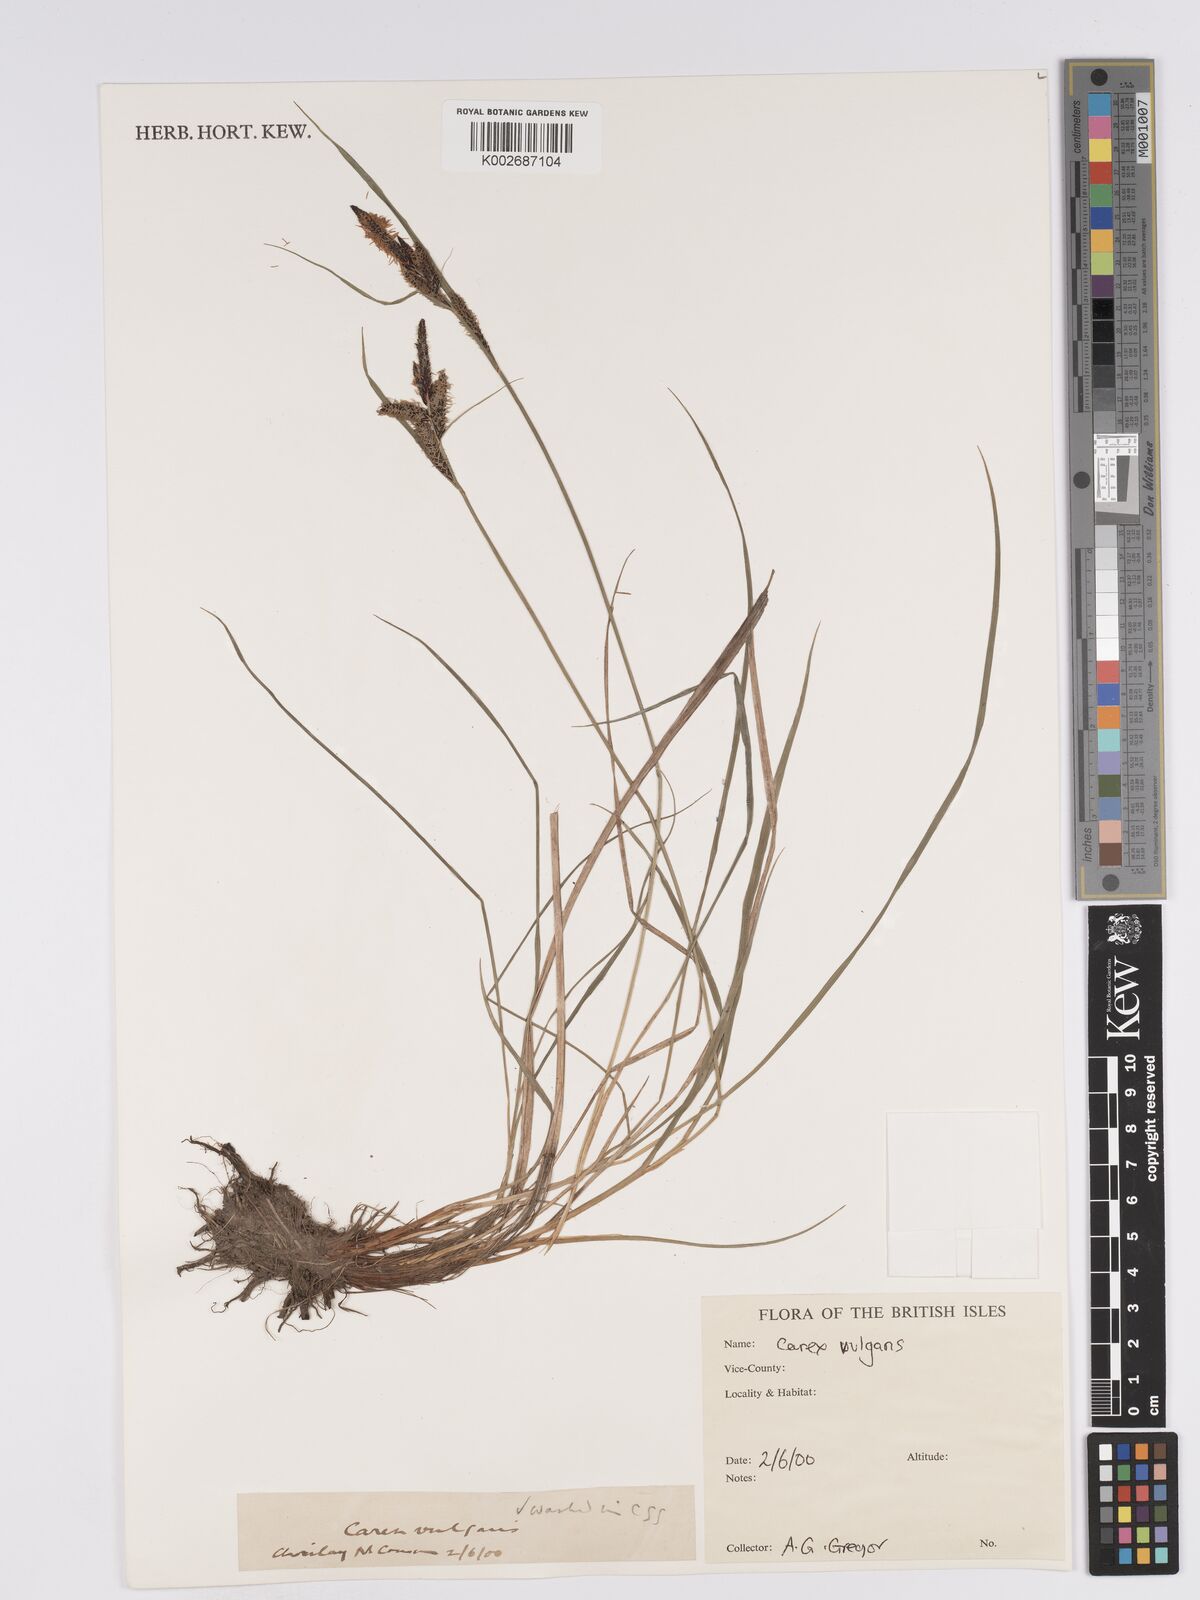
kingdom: Plantae
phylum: Tracheophyta
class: Liliopsida
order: Poales
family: Cyperaceae
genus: Carex
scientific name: Carex nigra
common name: Common sedge
